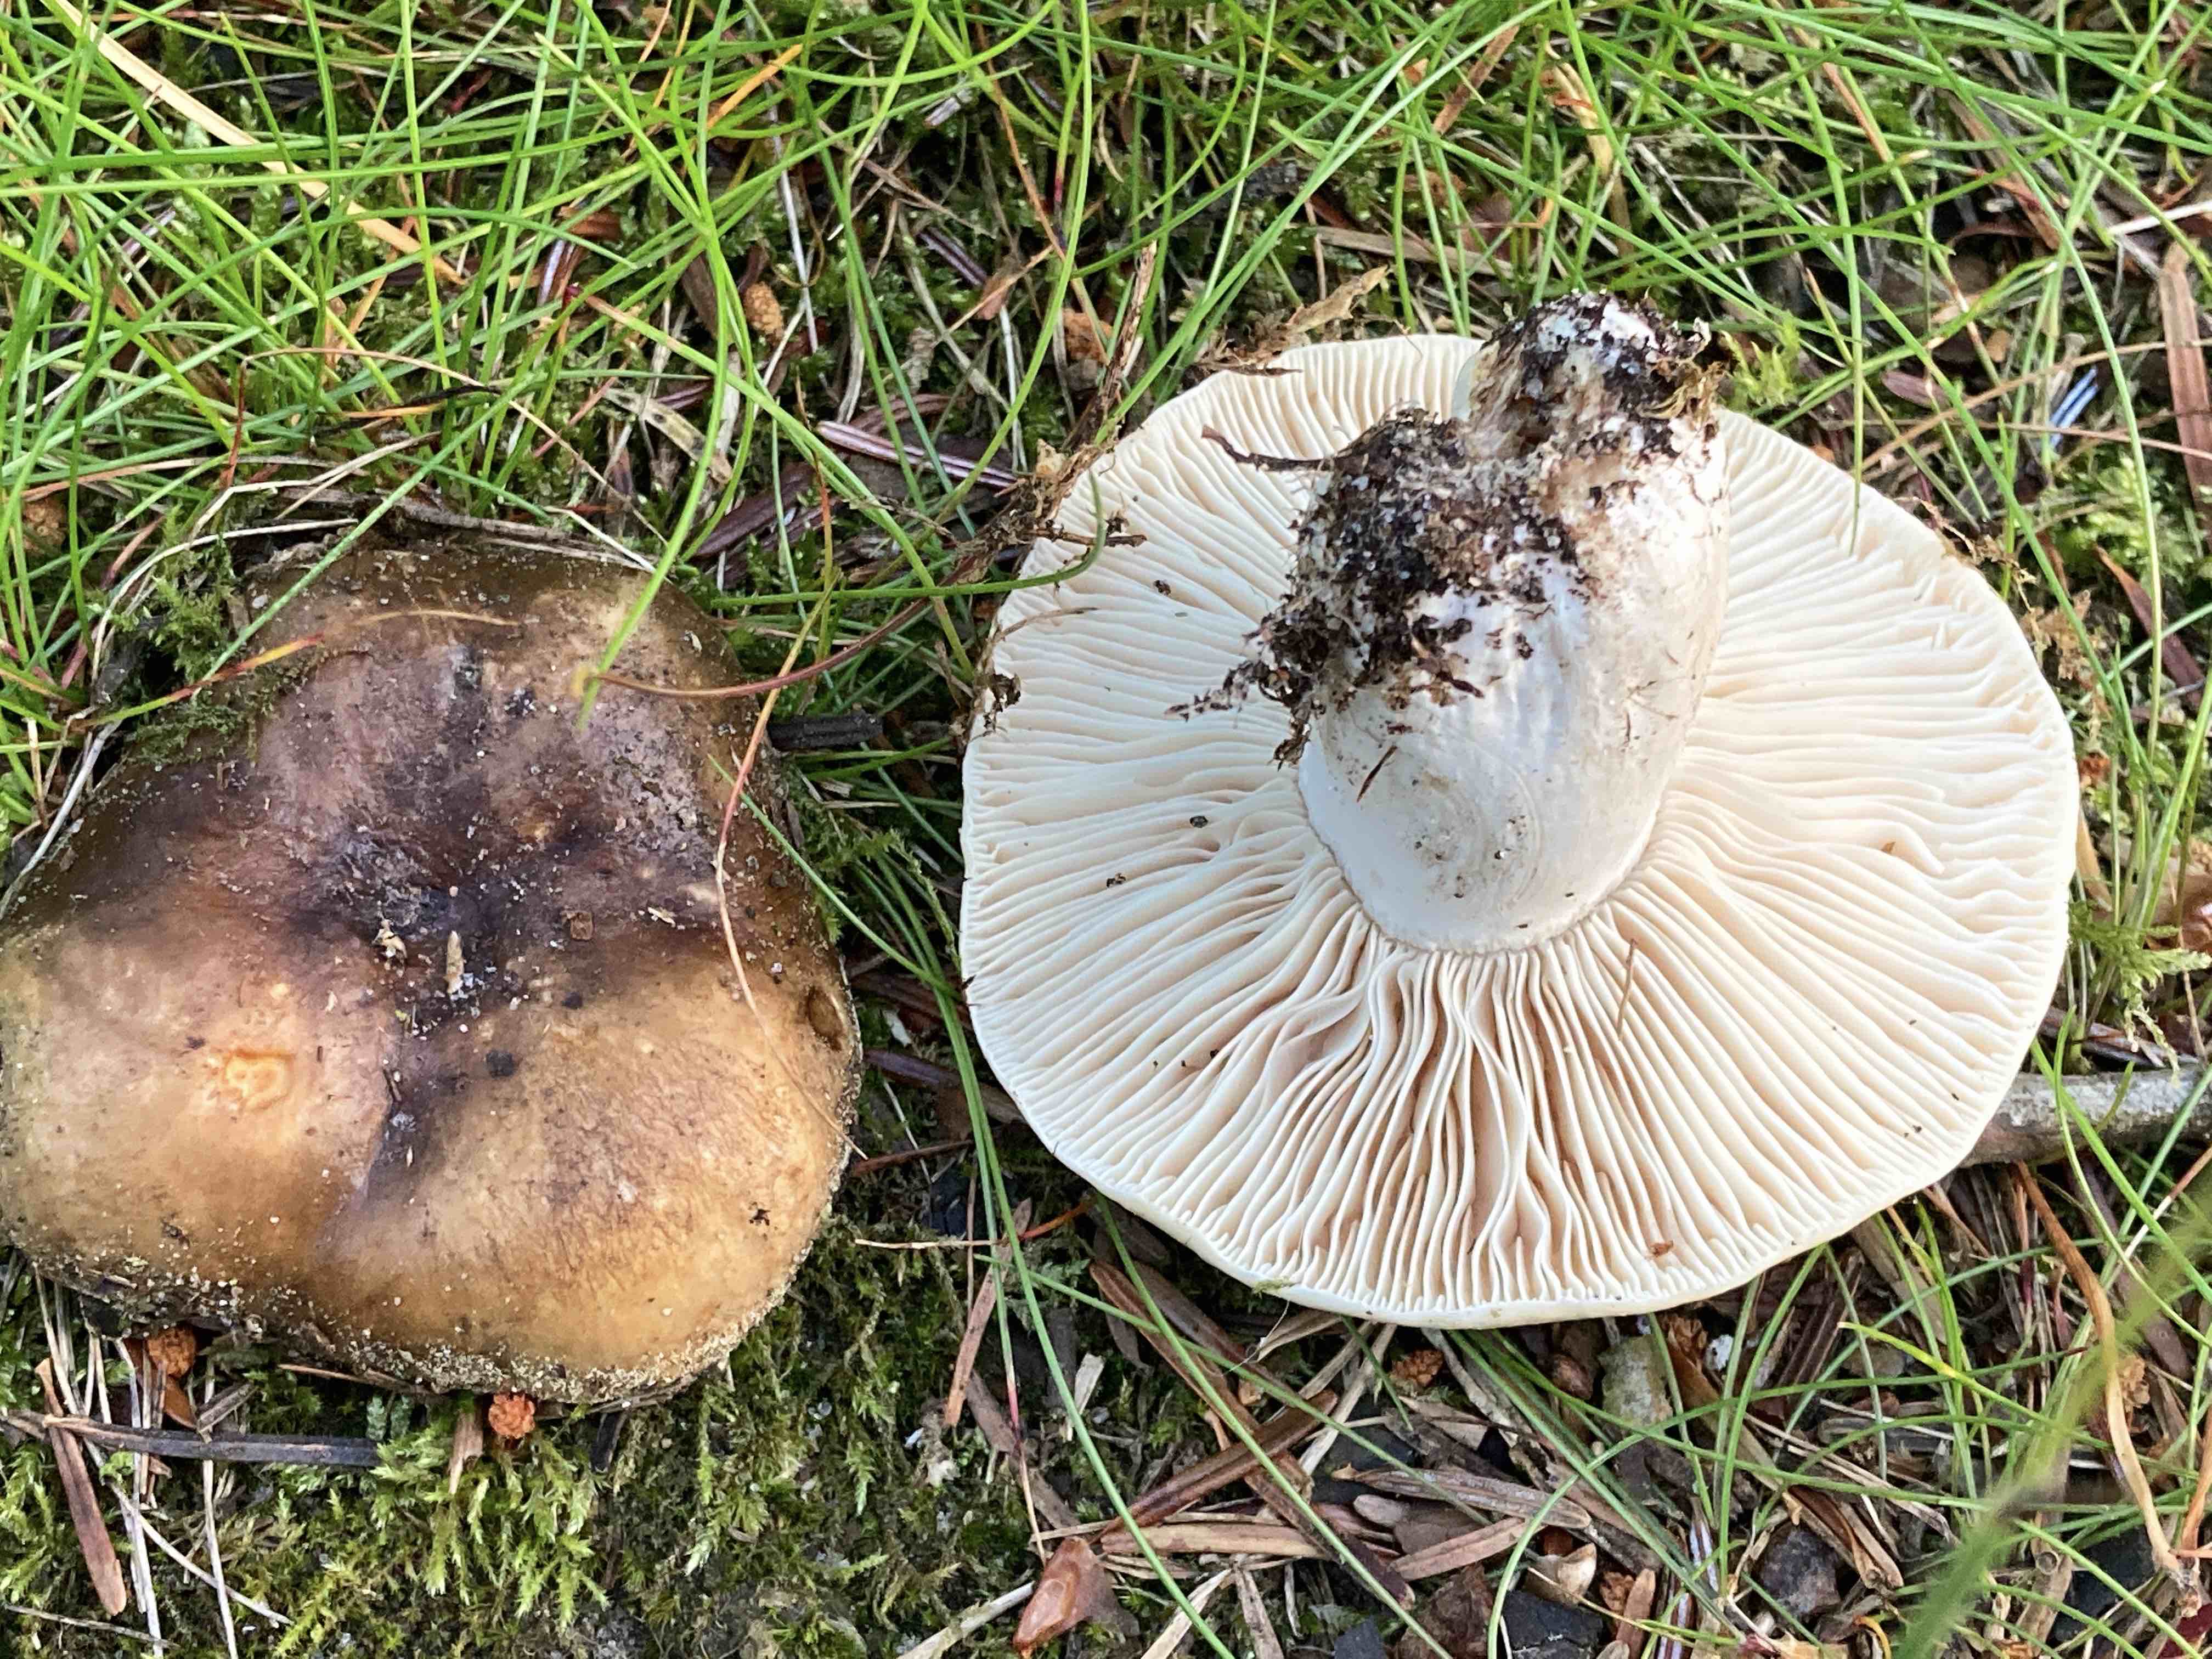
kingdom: Fungi
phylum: Basidiomycota
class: Agaricomycetes
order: Russulales
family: Russulaceae
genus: Russula
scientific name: Russula adusta
